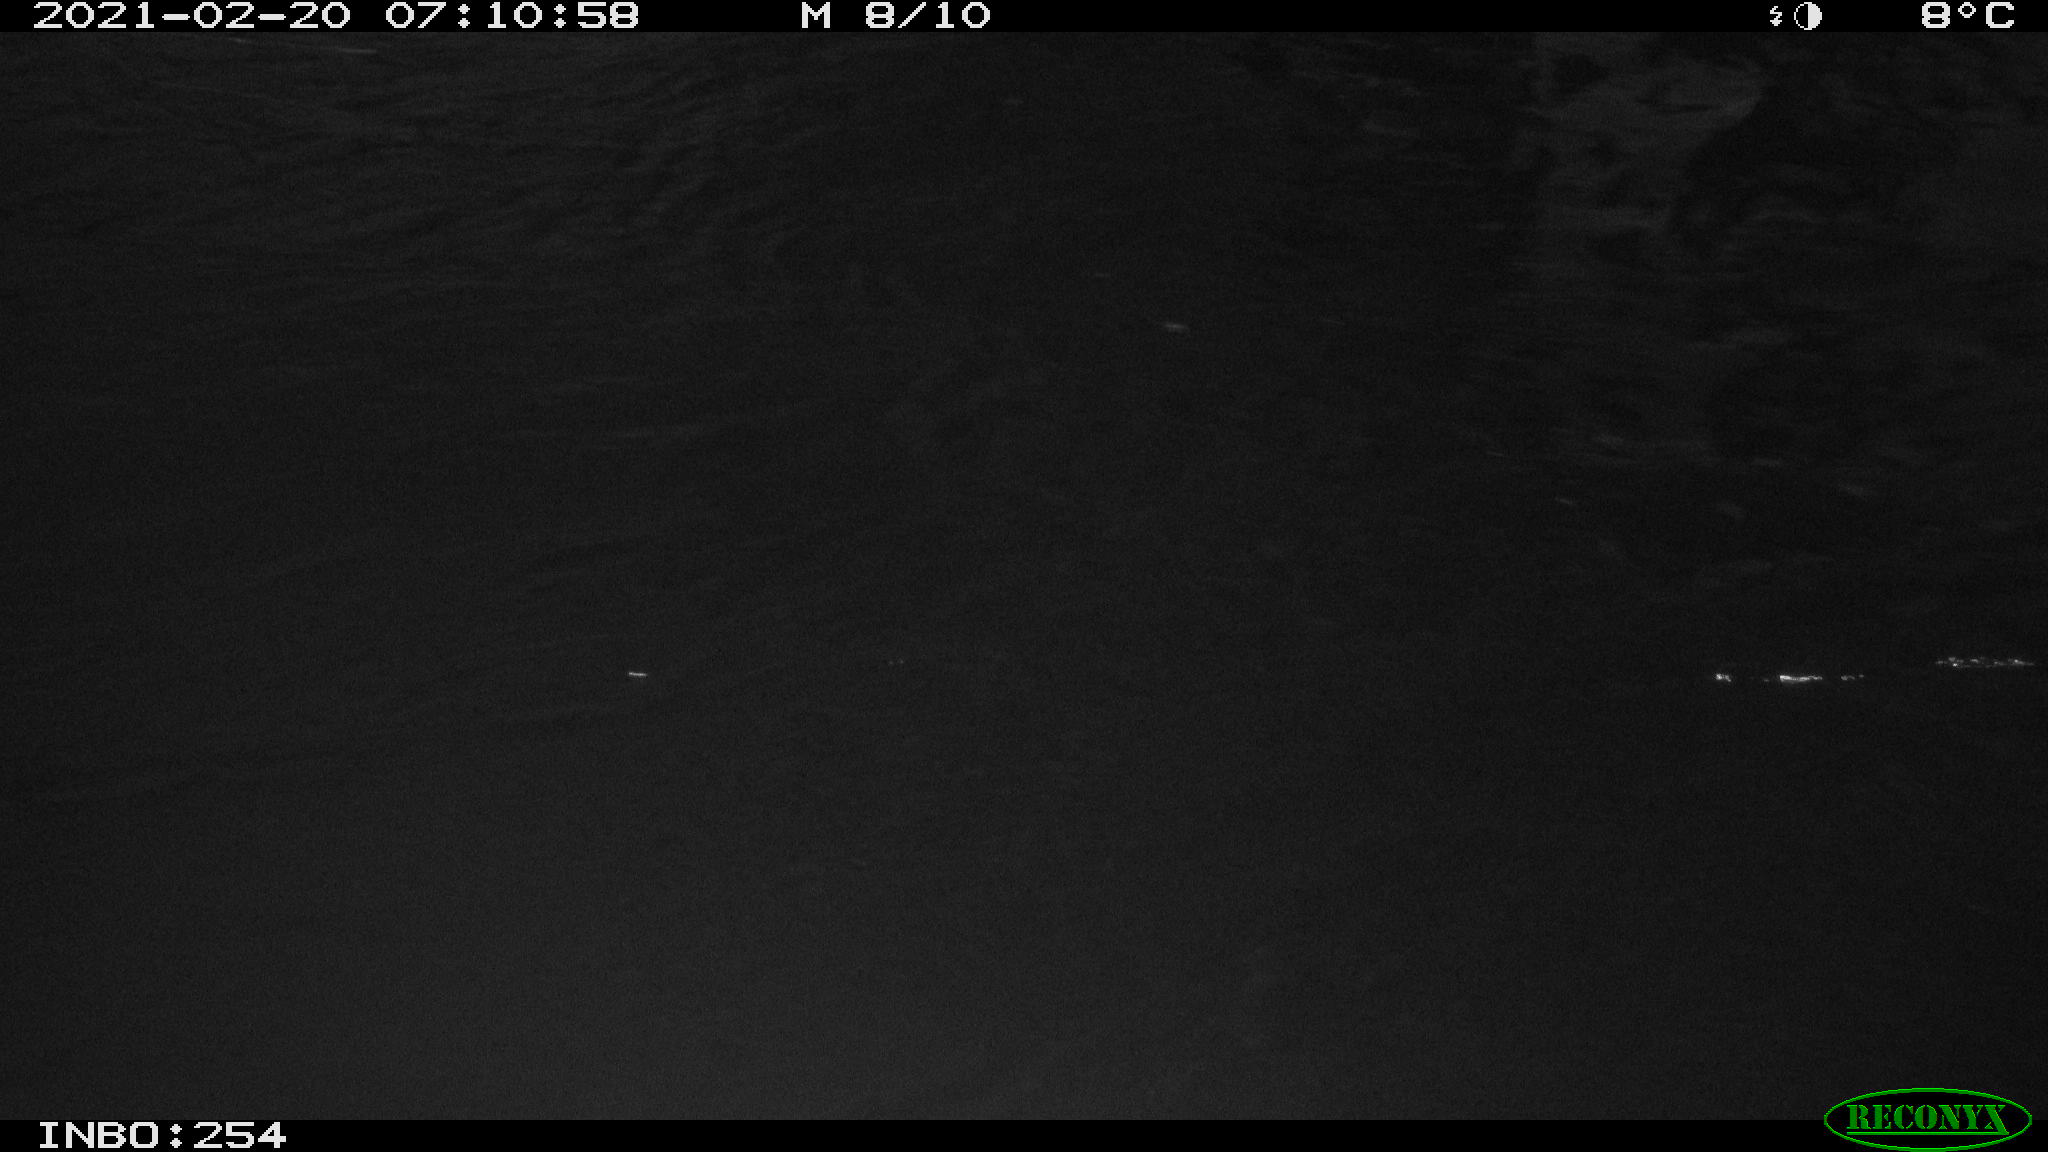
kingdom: Animalia
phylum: Chordata
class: Aves
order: Anseriformes
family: Anatidae
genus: Anas
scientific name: Anas
